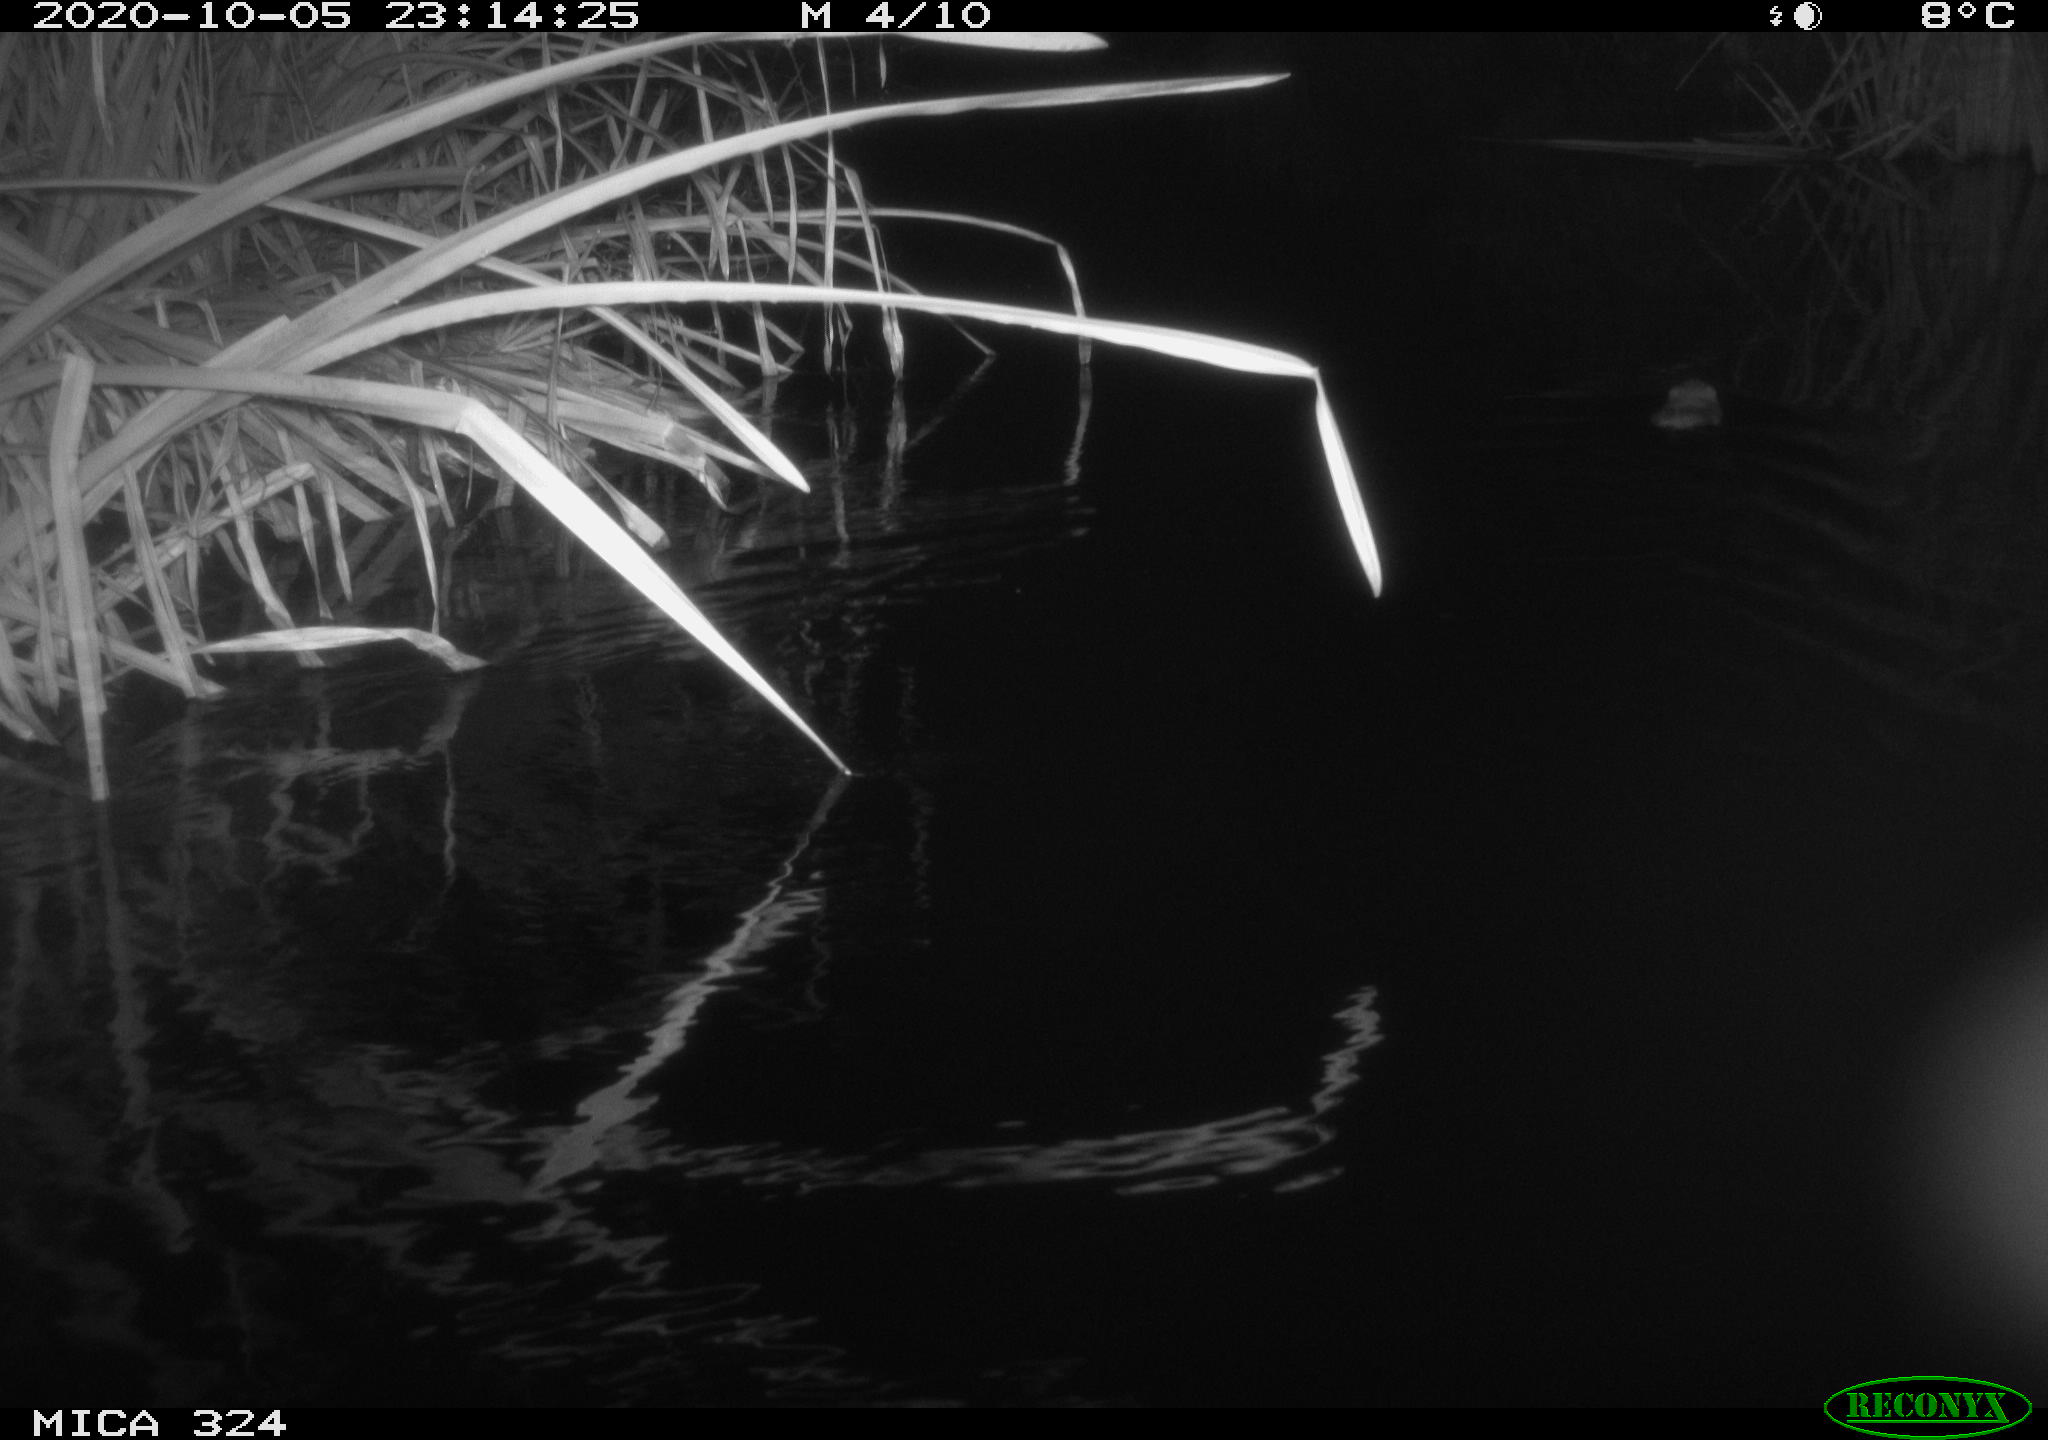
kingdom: Animalia
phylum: Chordata
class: Mammalia
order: Rodentia
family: Cricetidae
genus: Ondatra
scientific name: Ondatra zibethicus
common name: Muskrat
